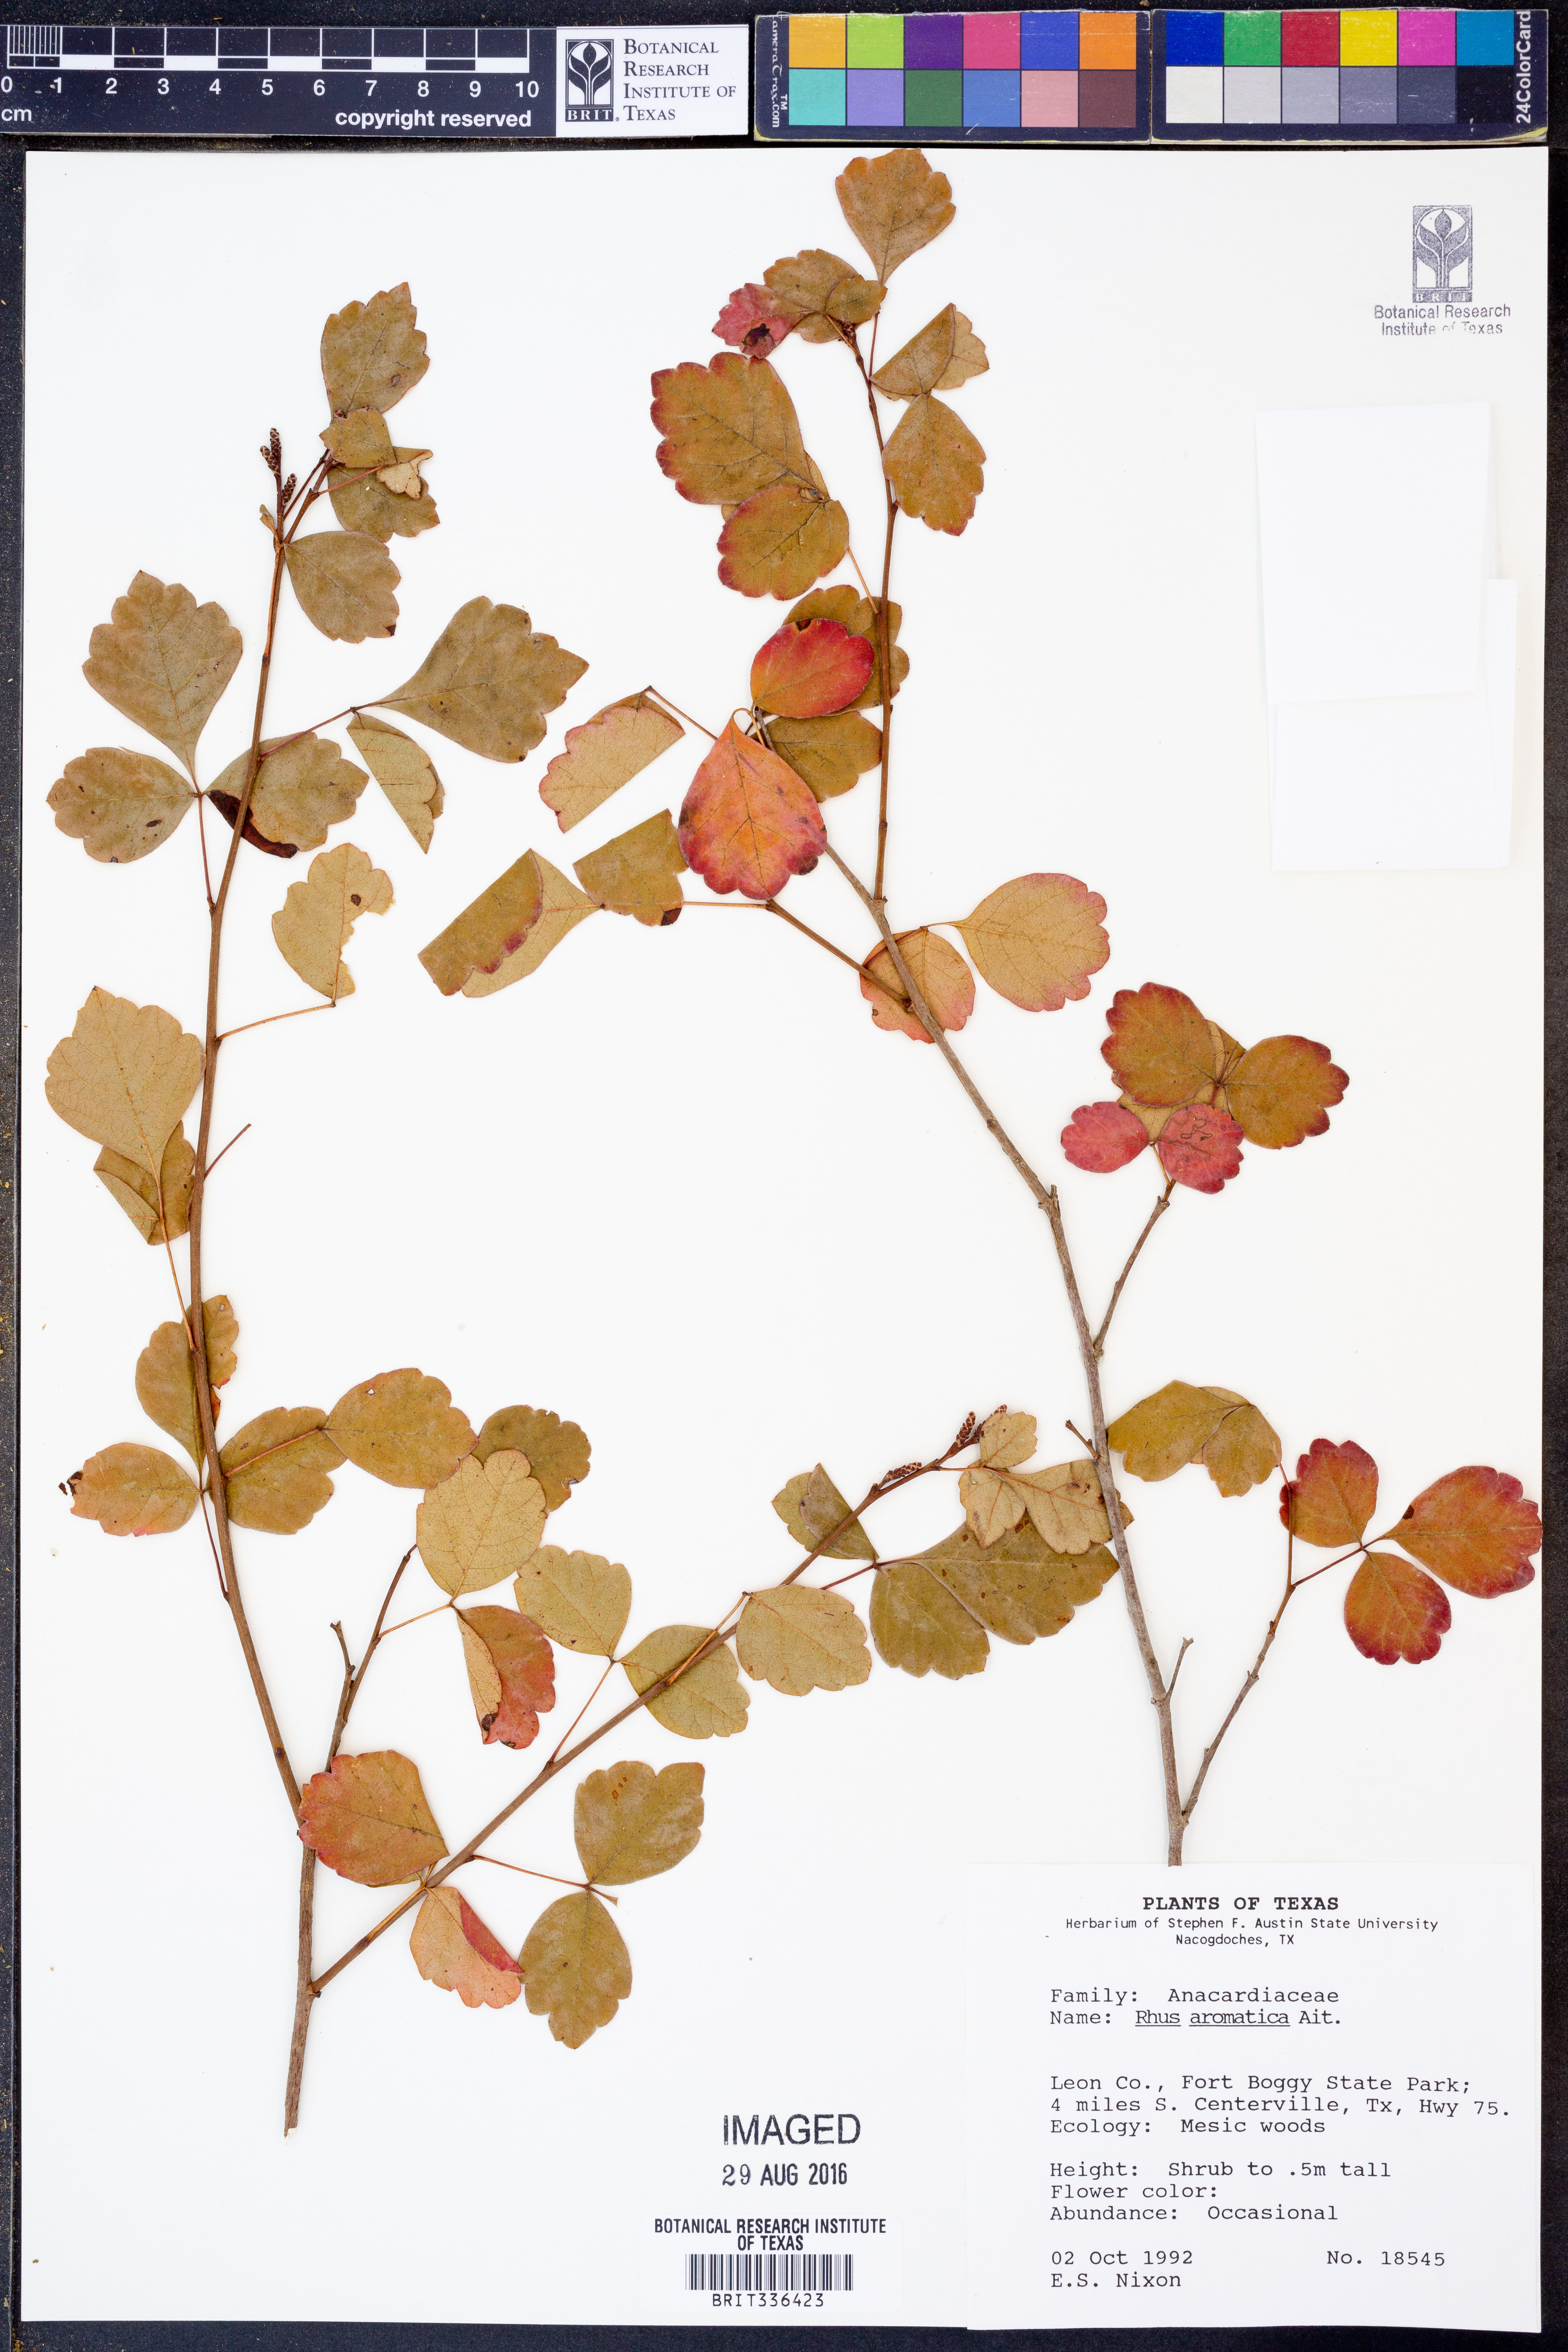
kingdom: Plantae
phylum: Tracheophyta
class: Magnoliopsida
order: Sapindales
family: Anacardiaceae
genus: Rhus
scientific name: Rhus aromatica
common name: Aromatic sumac
